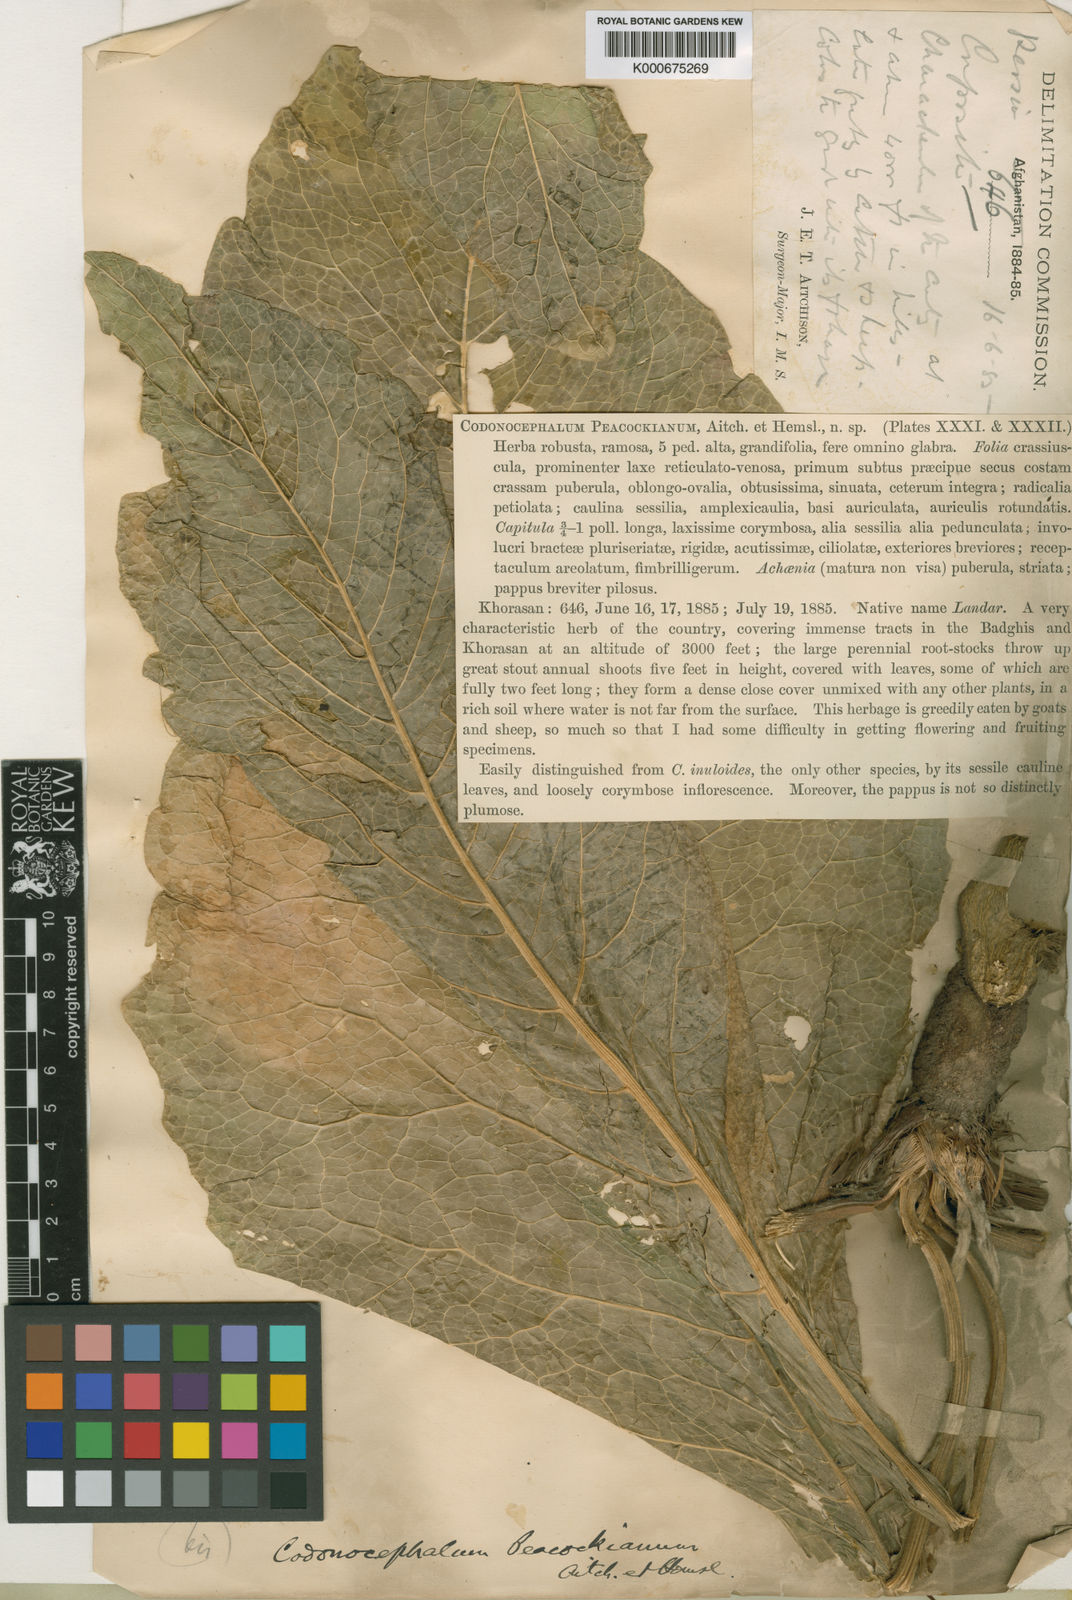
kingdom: Plantae
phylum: Tracheophyta
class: Magnoliopsida
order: Asterales
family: Asteraceae
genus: Inula
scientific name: Inula peacockiana
